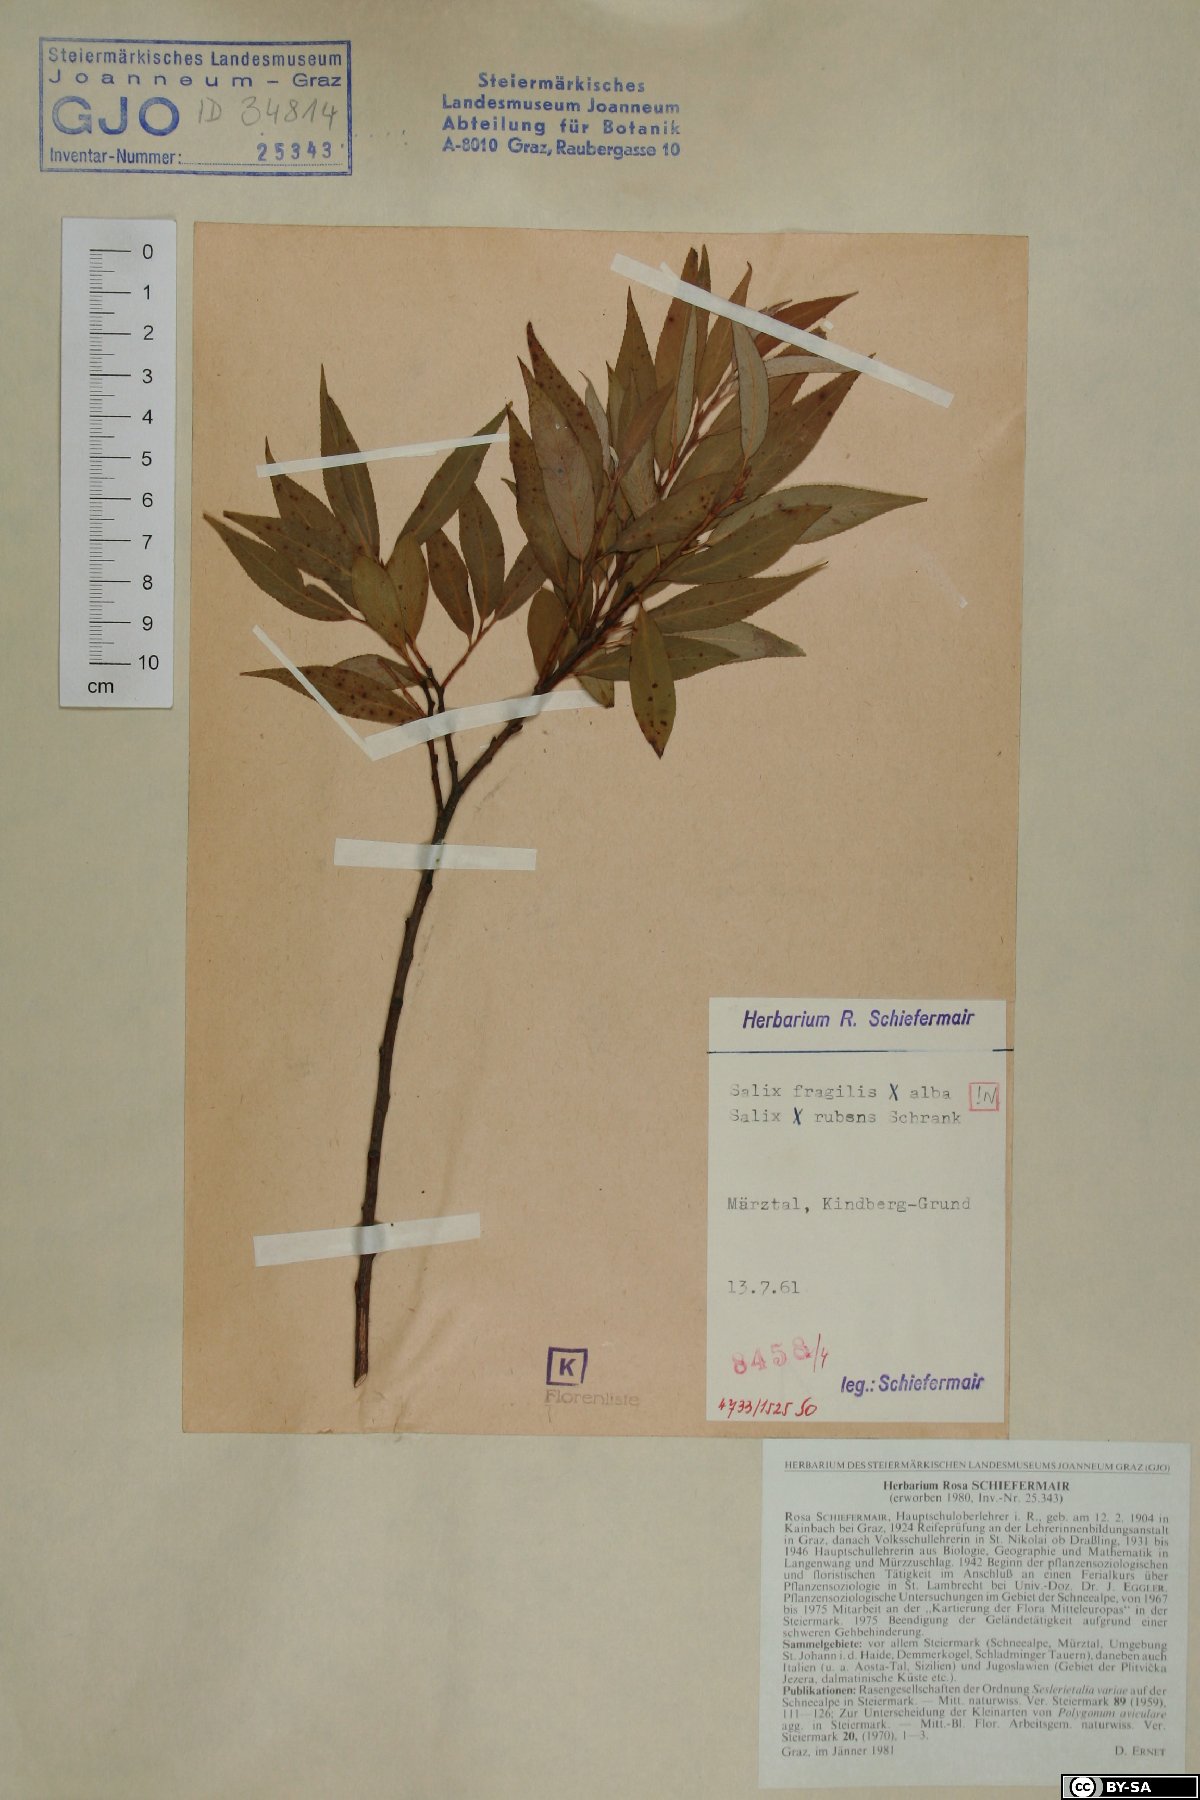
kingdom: Plantae
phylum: Tracheophyta
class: Magnoliopsida
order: Malpighiales
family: Salicaceae
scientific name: Salicaceae
